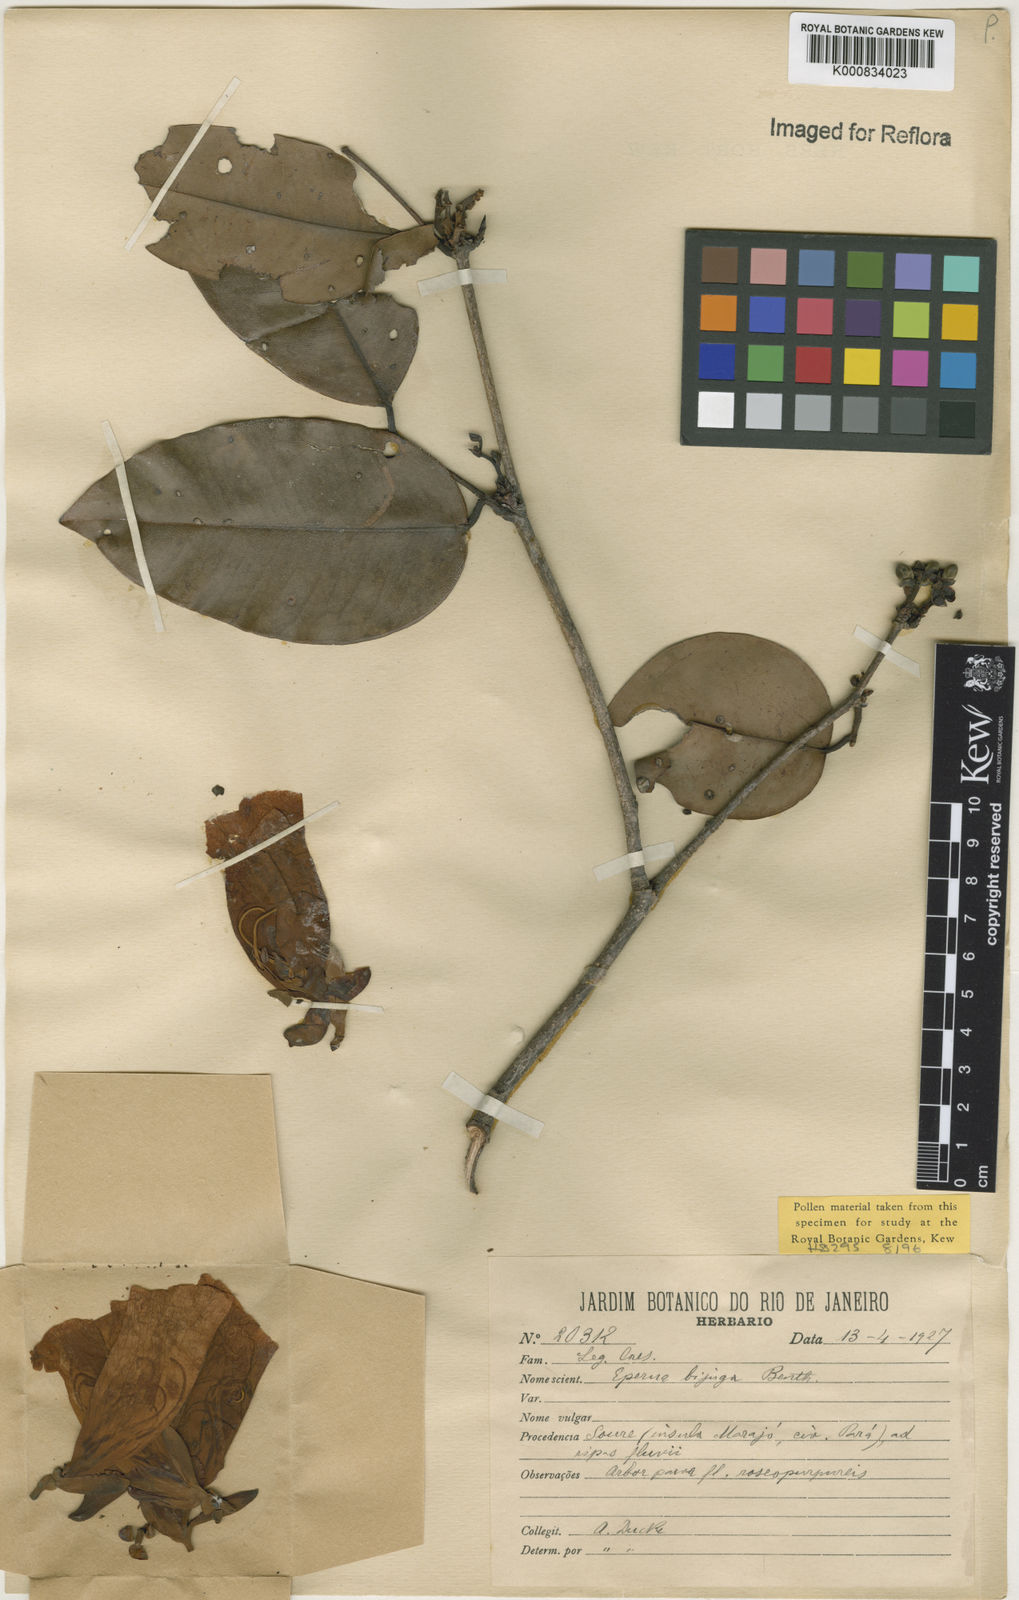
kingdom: Plantae
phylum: Tracheophyta
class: Magnoliopsida
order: Fabales
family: Fabaceae
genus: Eperua
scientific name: Eperua bijuga
